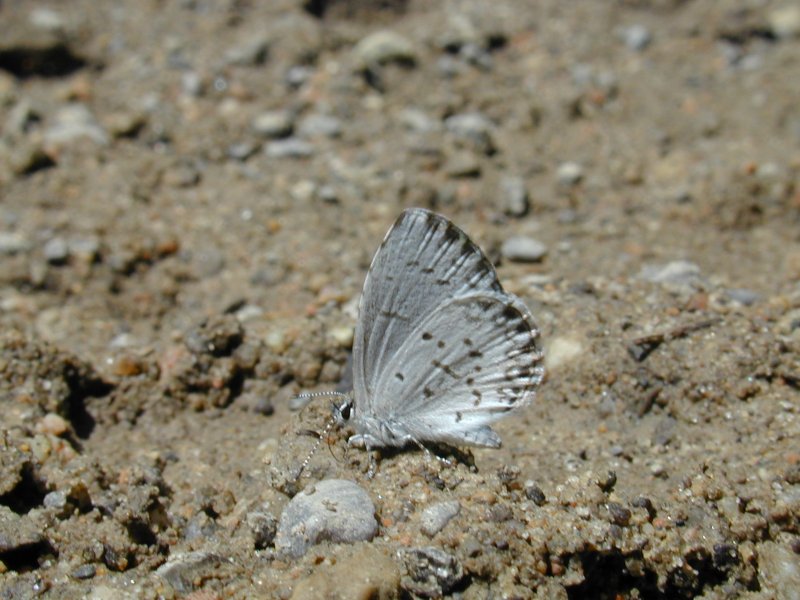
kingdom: Animalia
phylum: Arthropoda
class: Insecta
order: Lepidoptera
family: Lycaenidae
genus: Celastrina
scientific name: Celastrina lucia
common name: Northern Spring Azure
